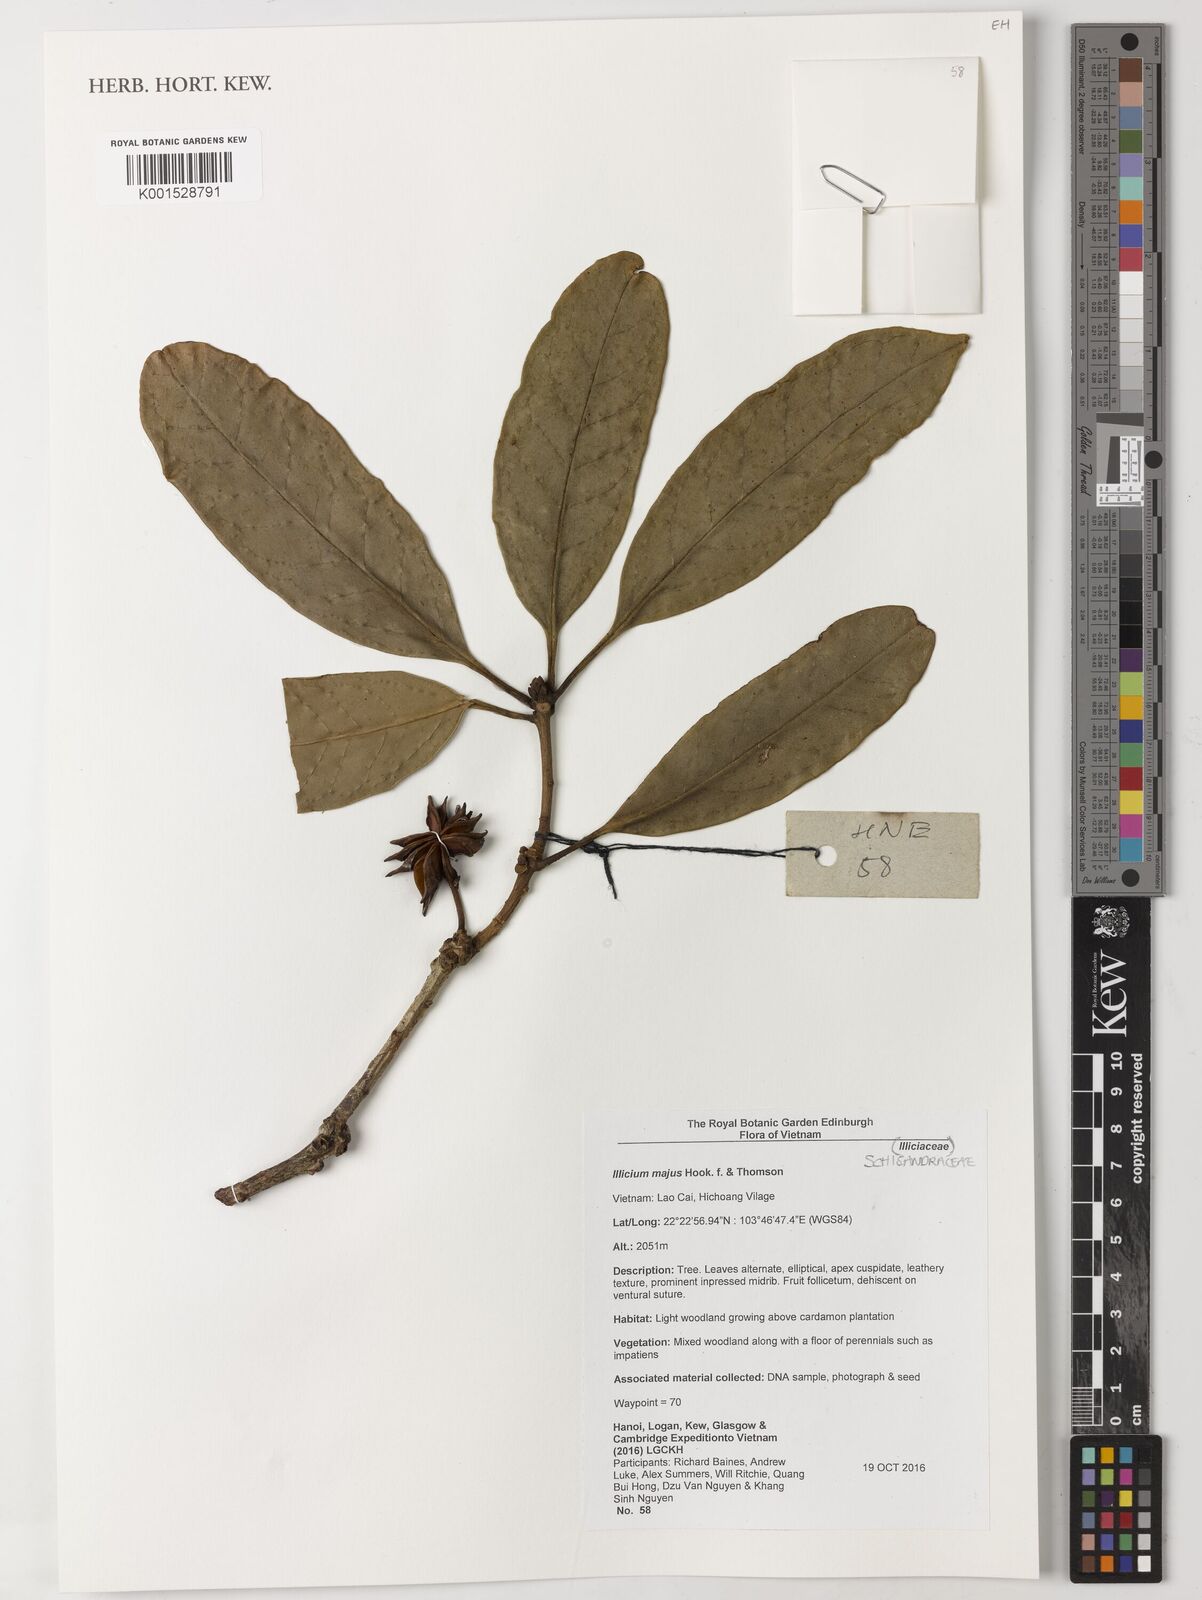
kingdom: Plantae
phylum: Tracheophyta
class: Magnoliopsida
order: Austrobaileyales
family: Schisandraceae
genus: Illicium
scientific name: Illicium majus
